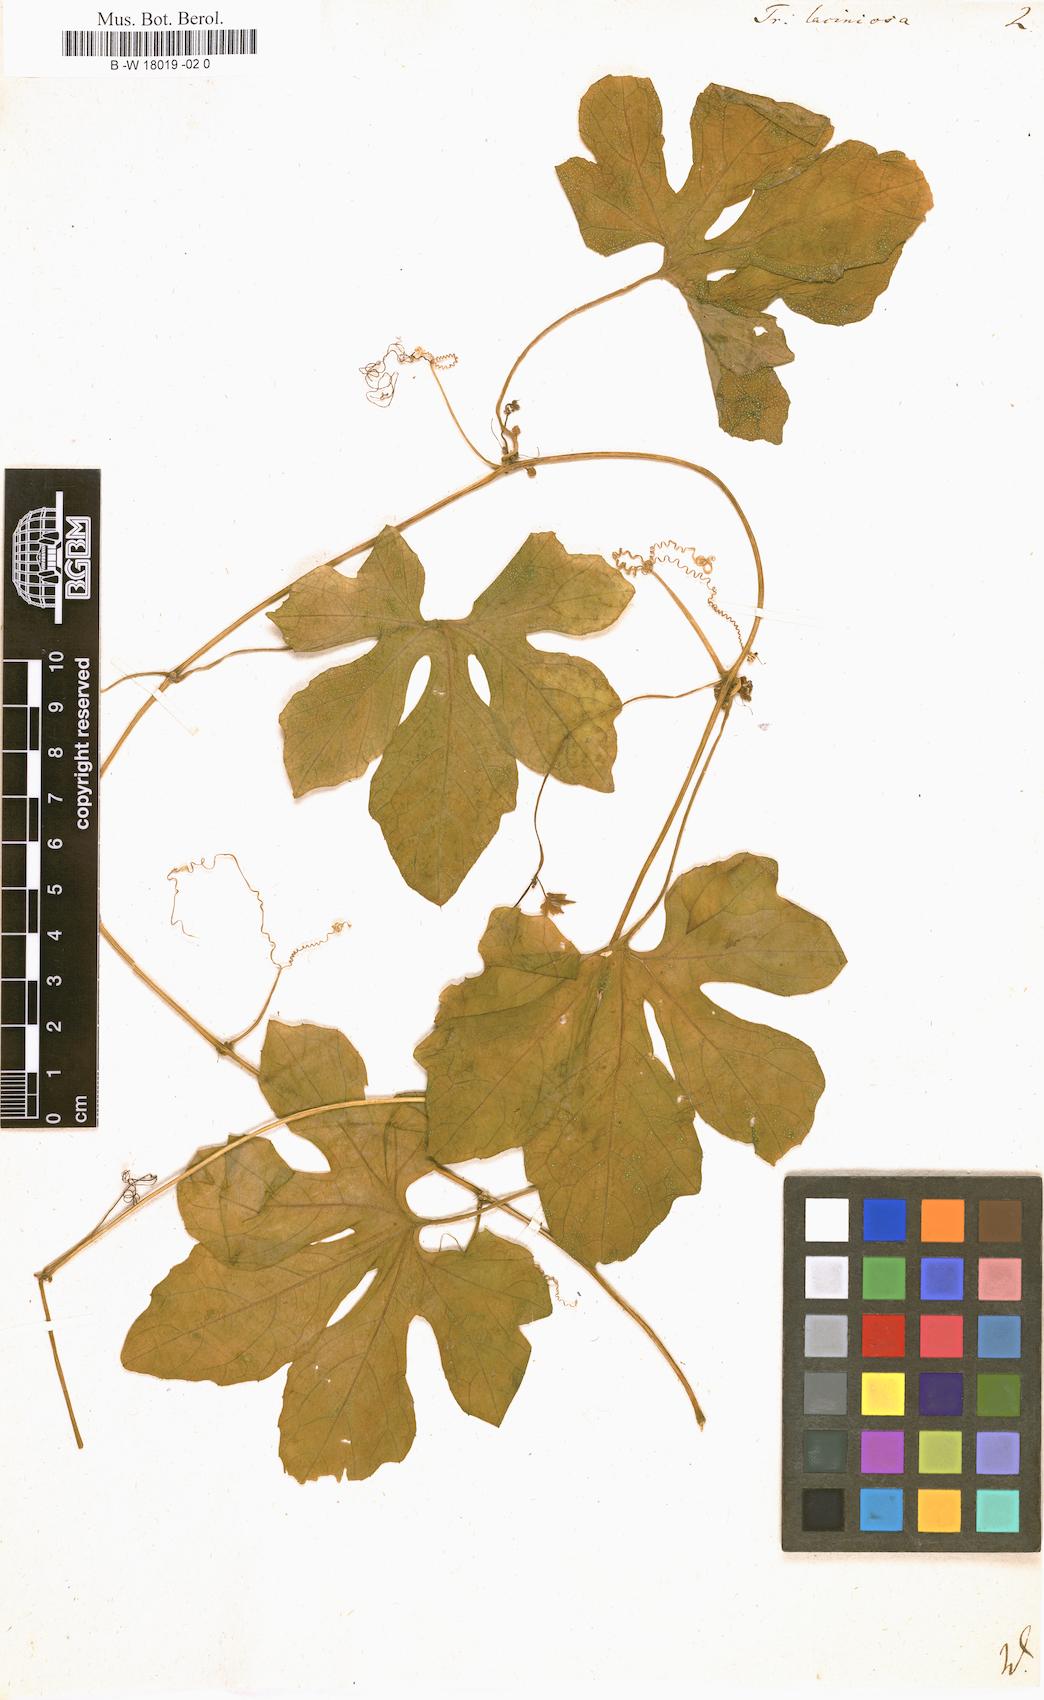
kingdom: Plantae
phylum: Tracheophyta
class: Magnoliopsida
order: Cucurbitales
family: Cucurbitaceae
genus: Trichosanthes
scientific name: Trichosanthes
